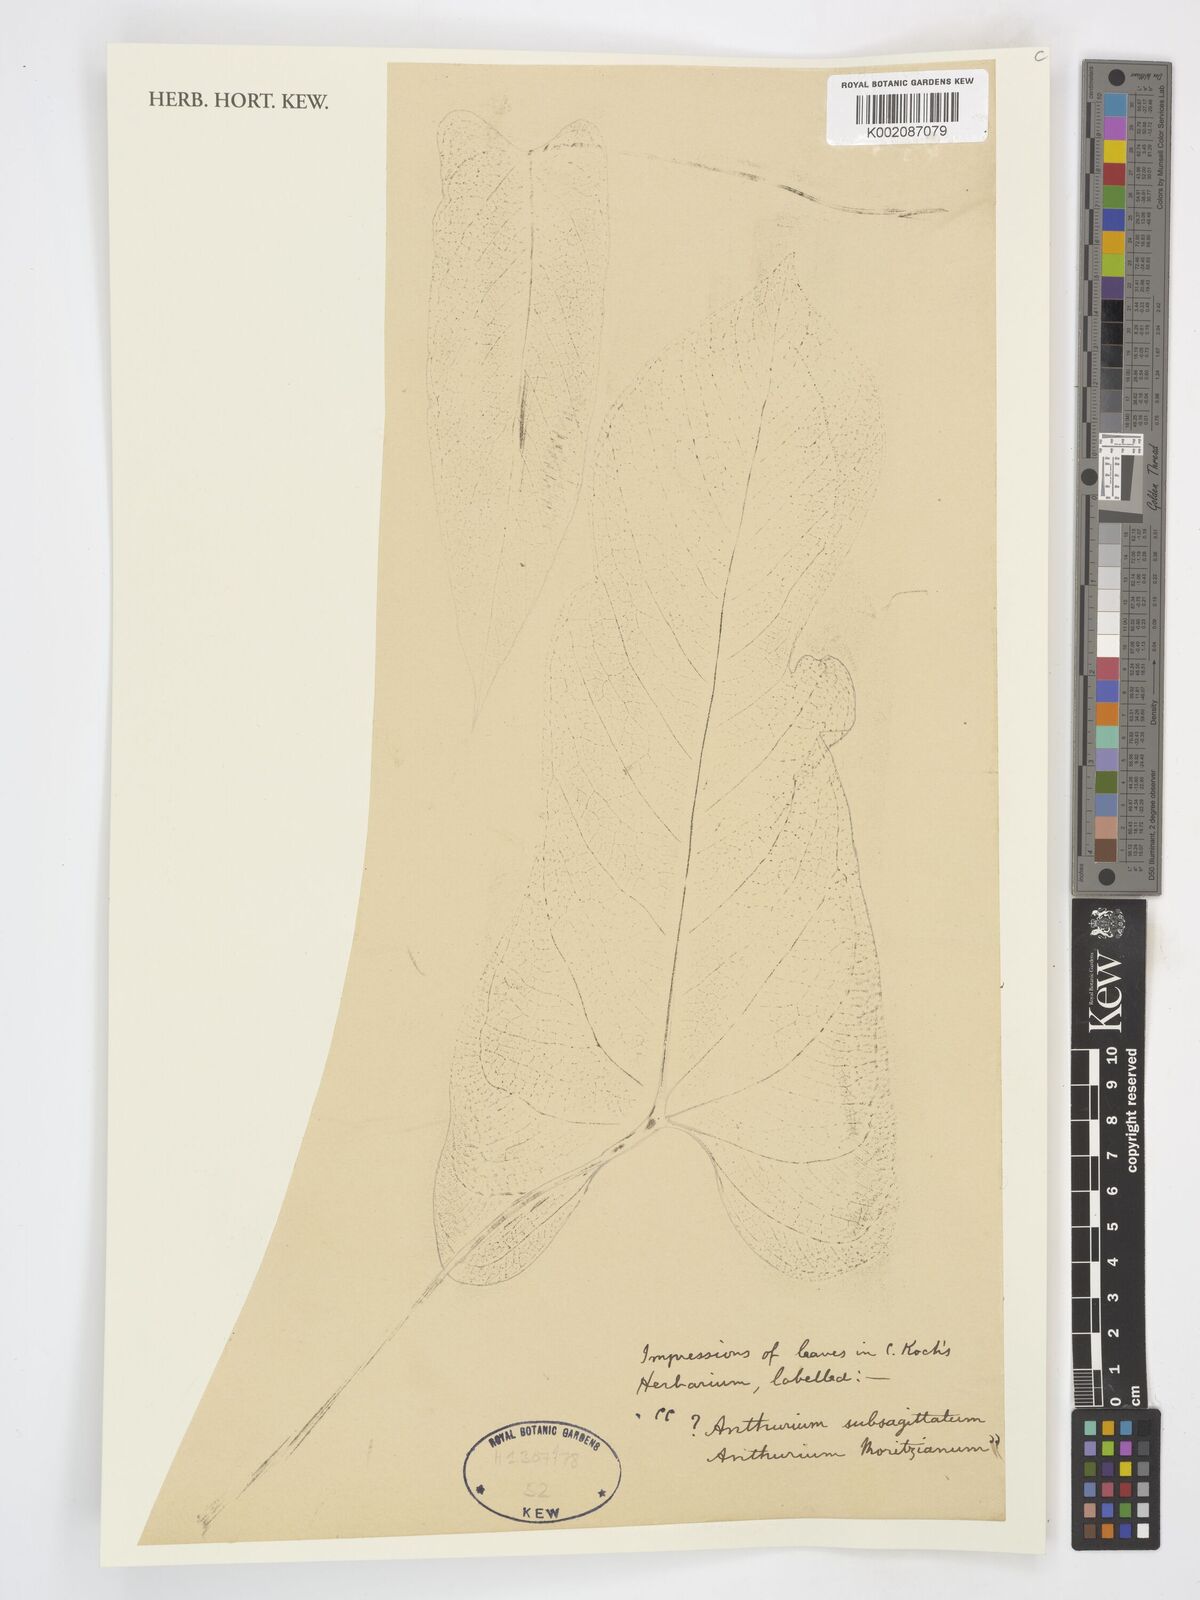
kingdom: Plantae
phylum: Tracheophyta
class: Liliopsida
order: Alismatales
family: Araceae
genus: Anthurium
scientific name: Anthurium
